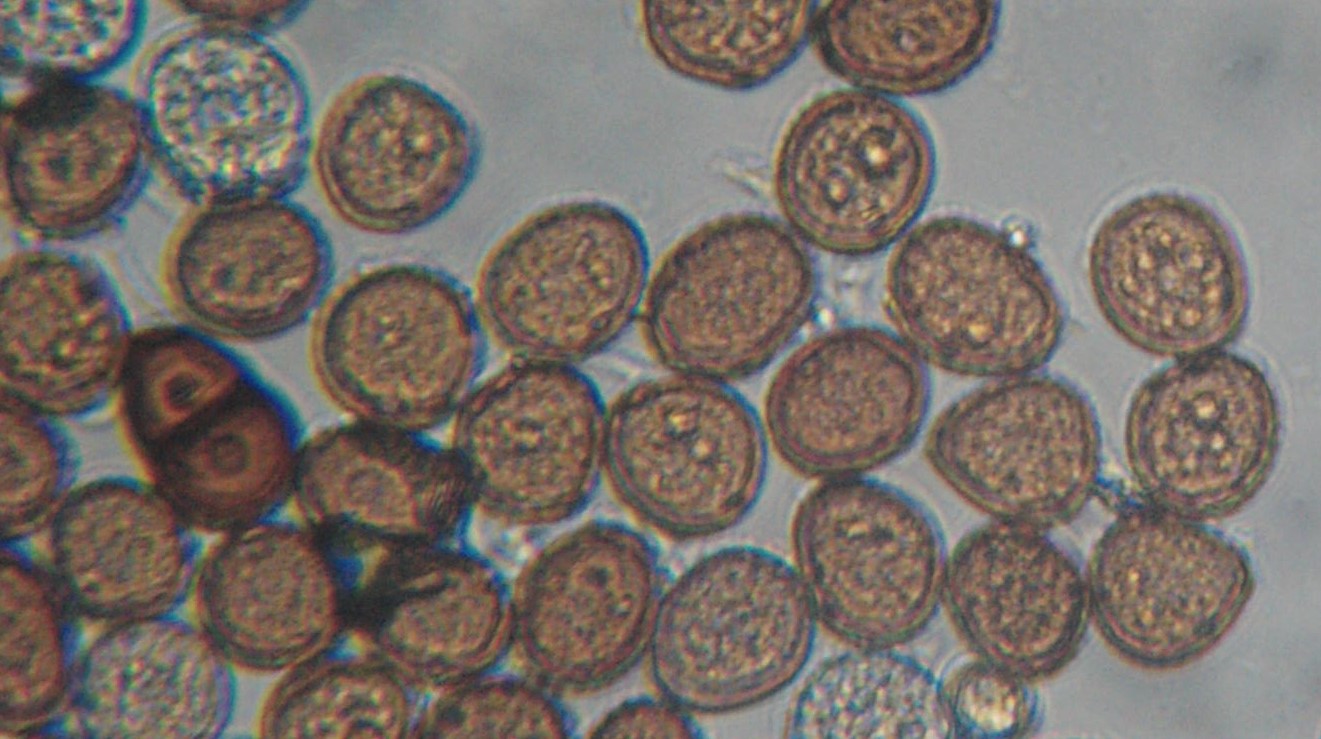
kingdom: Fungi
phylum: Basidiomycota
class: Pucciniomycetes
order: Pucciniales
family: Pucciniaceae
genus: Puccinia
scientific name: Puccinia lapsanae
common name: Nipplewort rust
